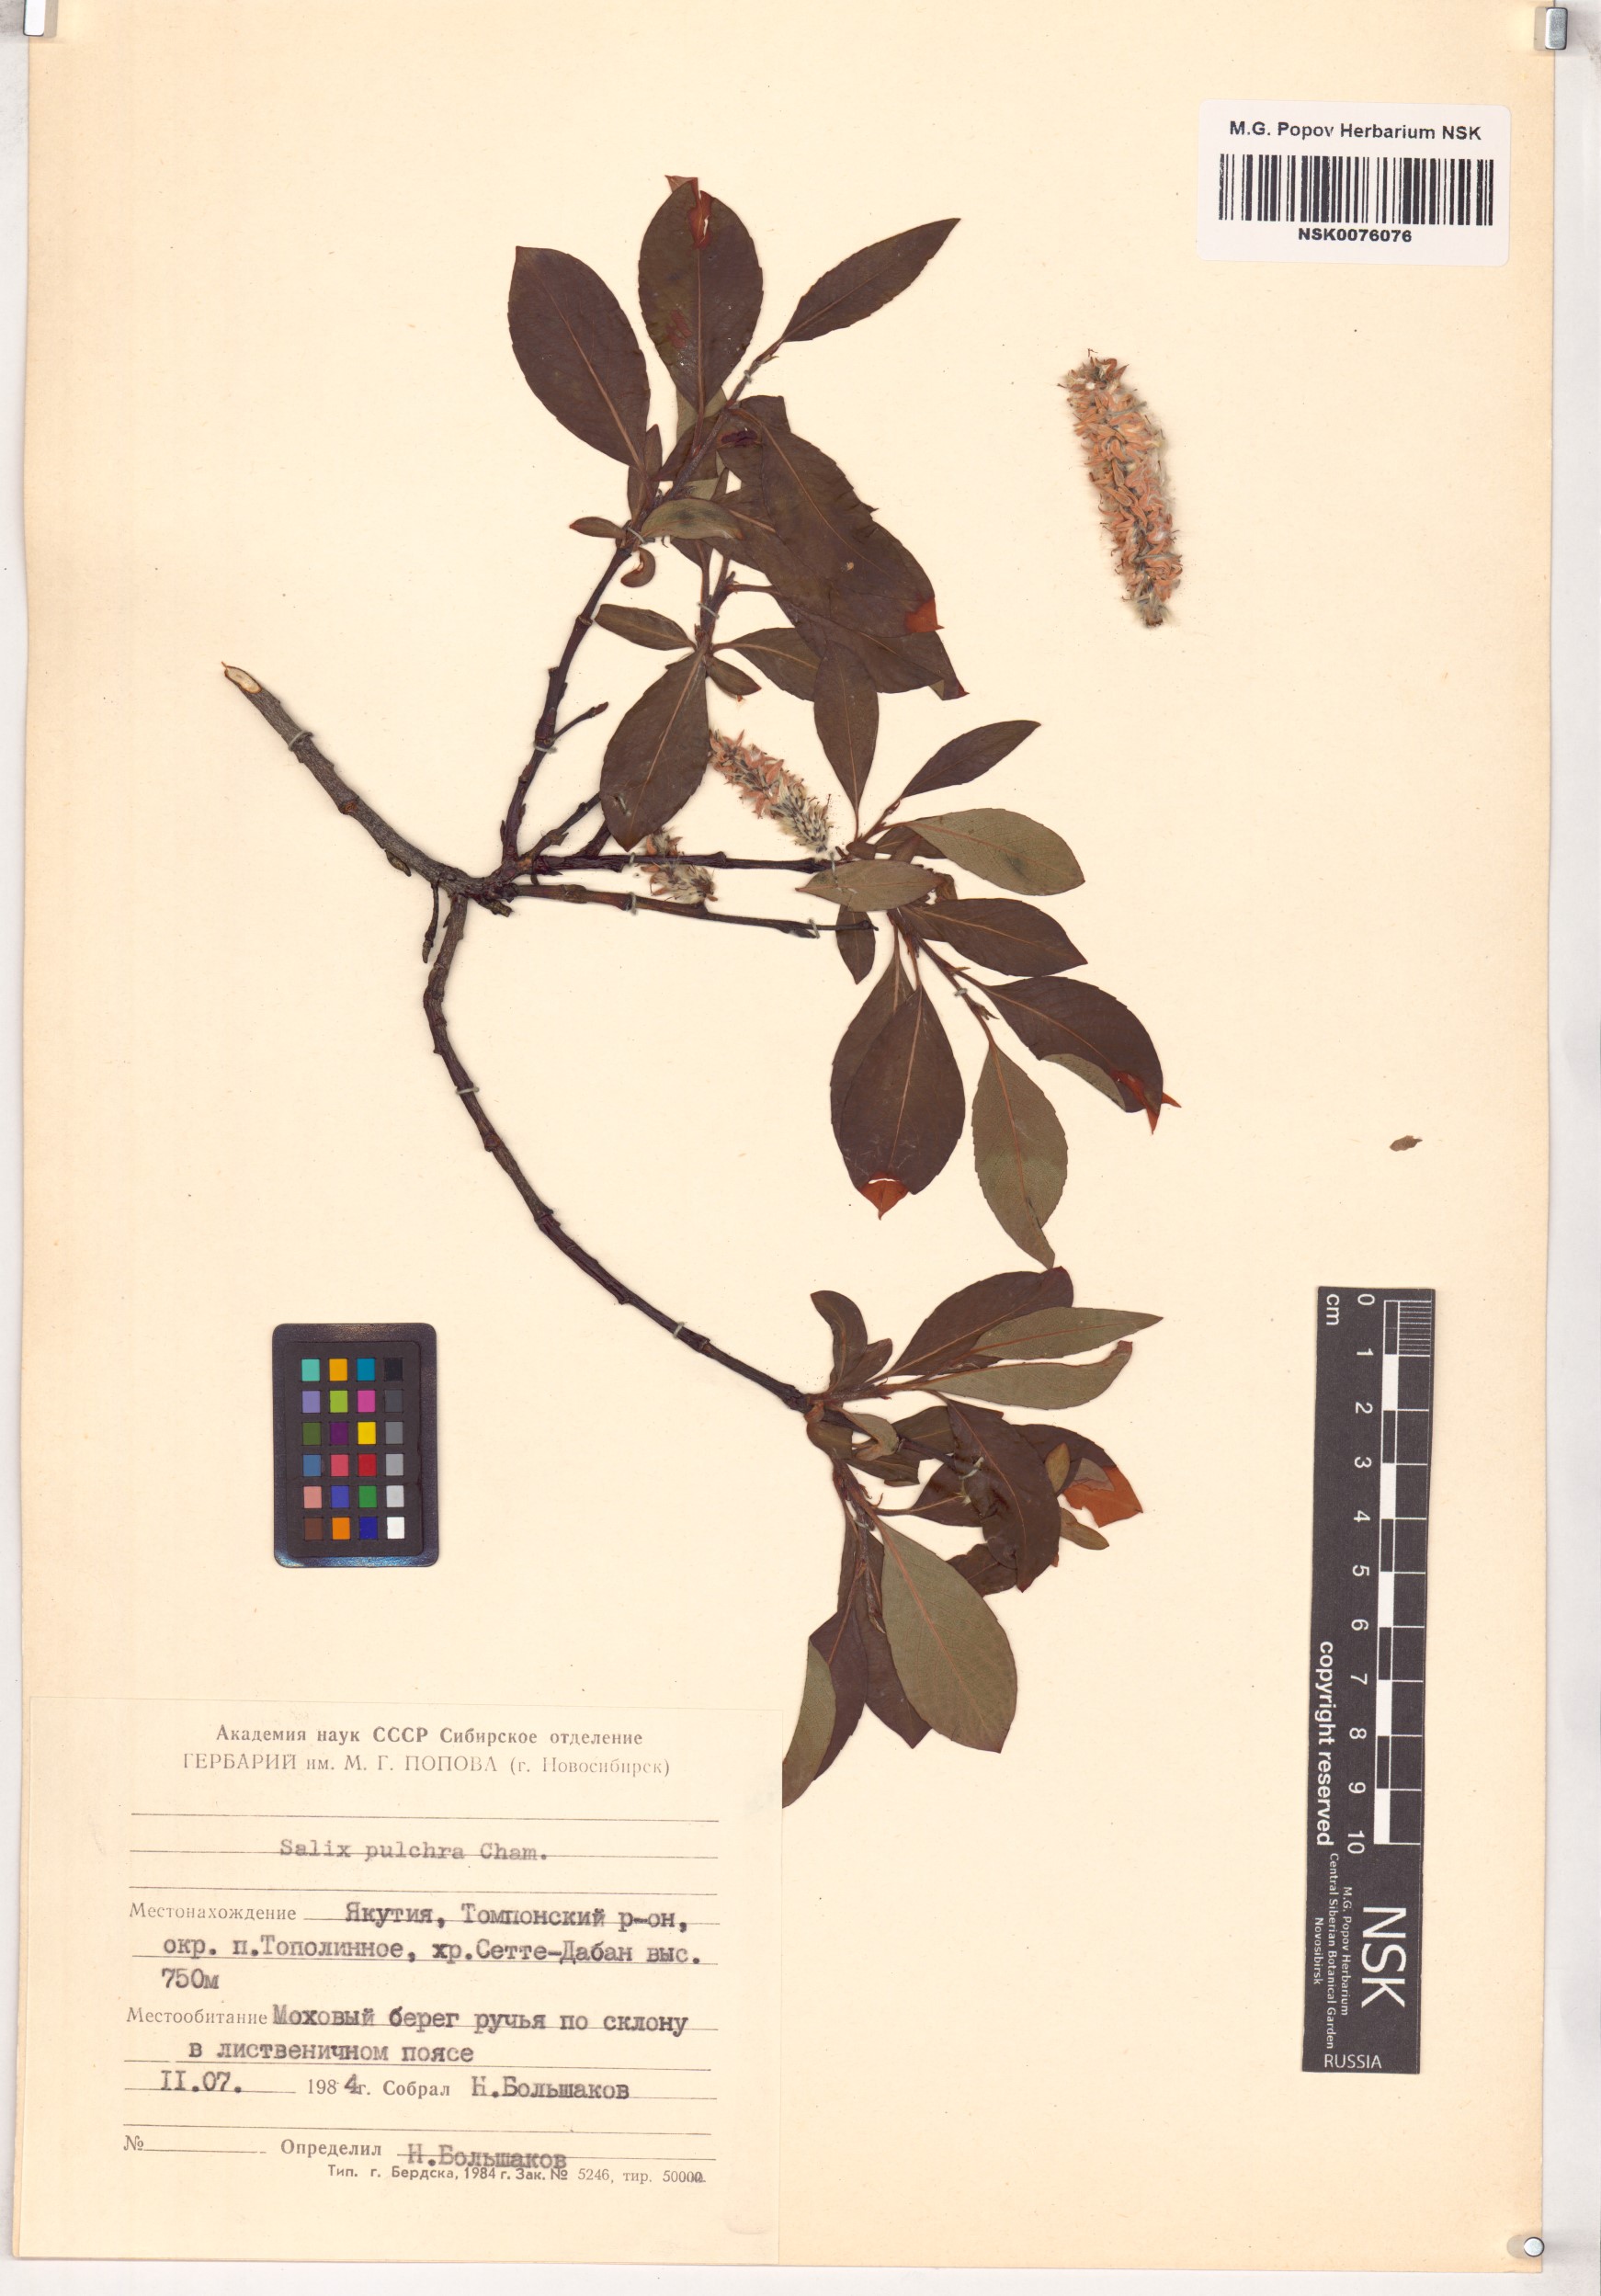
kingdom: Plantae
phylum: Tracheophyta
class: Magnoliopsida
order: Malpighiales
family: Salicaceae
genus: Salix
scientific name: Salix pulchra
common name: Diamond-leaved willow
